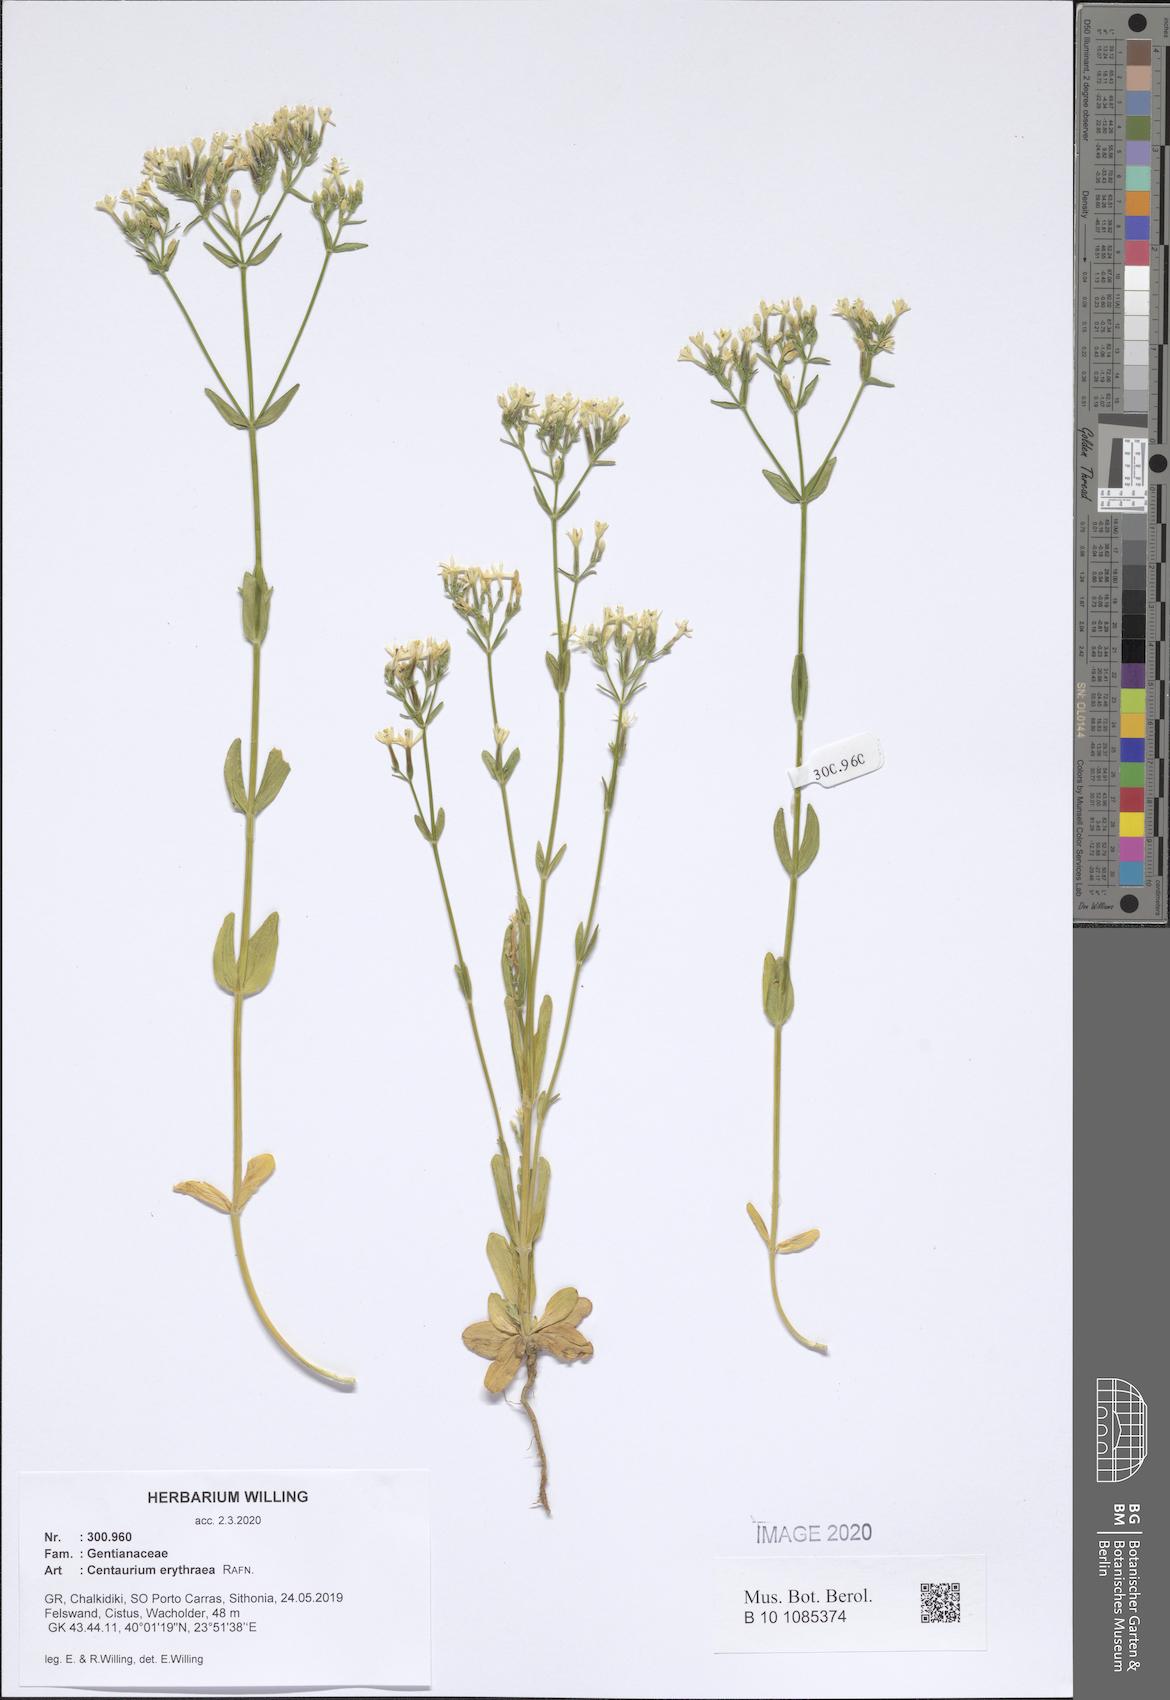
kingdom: Plantae
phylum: Tracheophyta
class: Magnoliopsida
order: Gentianales
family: Gentianaceae
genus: Centaurium
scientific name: Centaurium erythraea
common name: Common centaury
